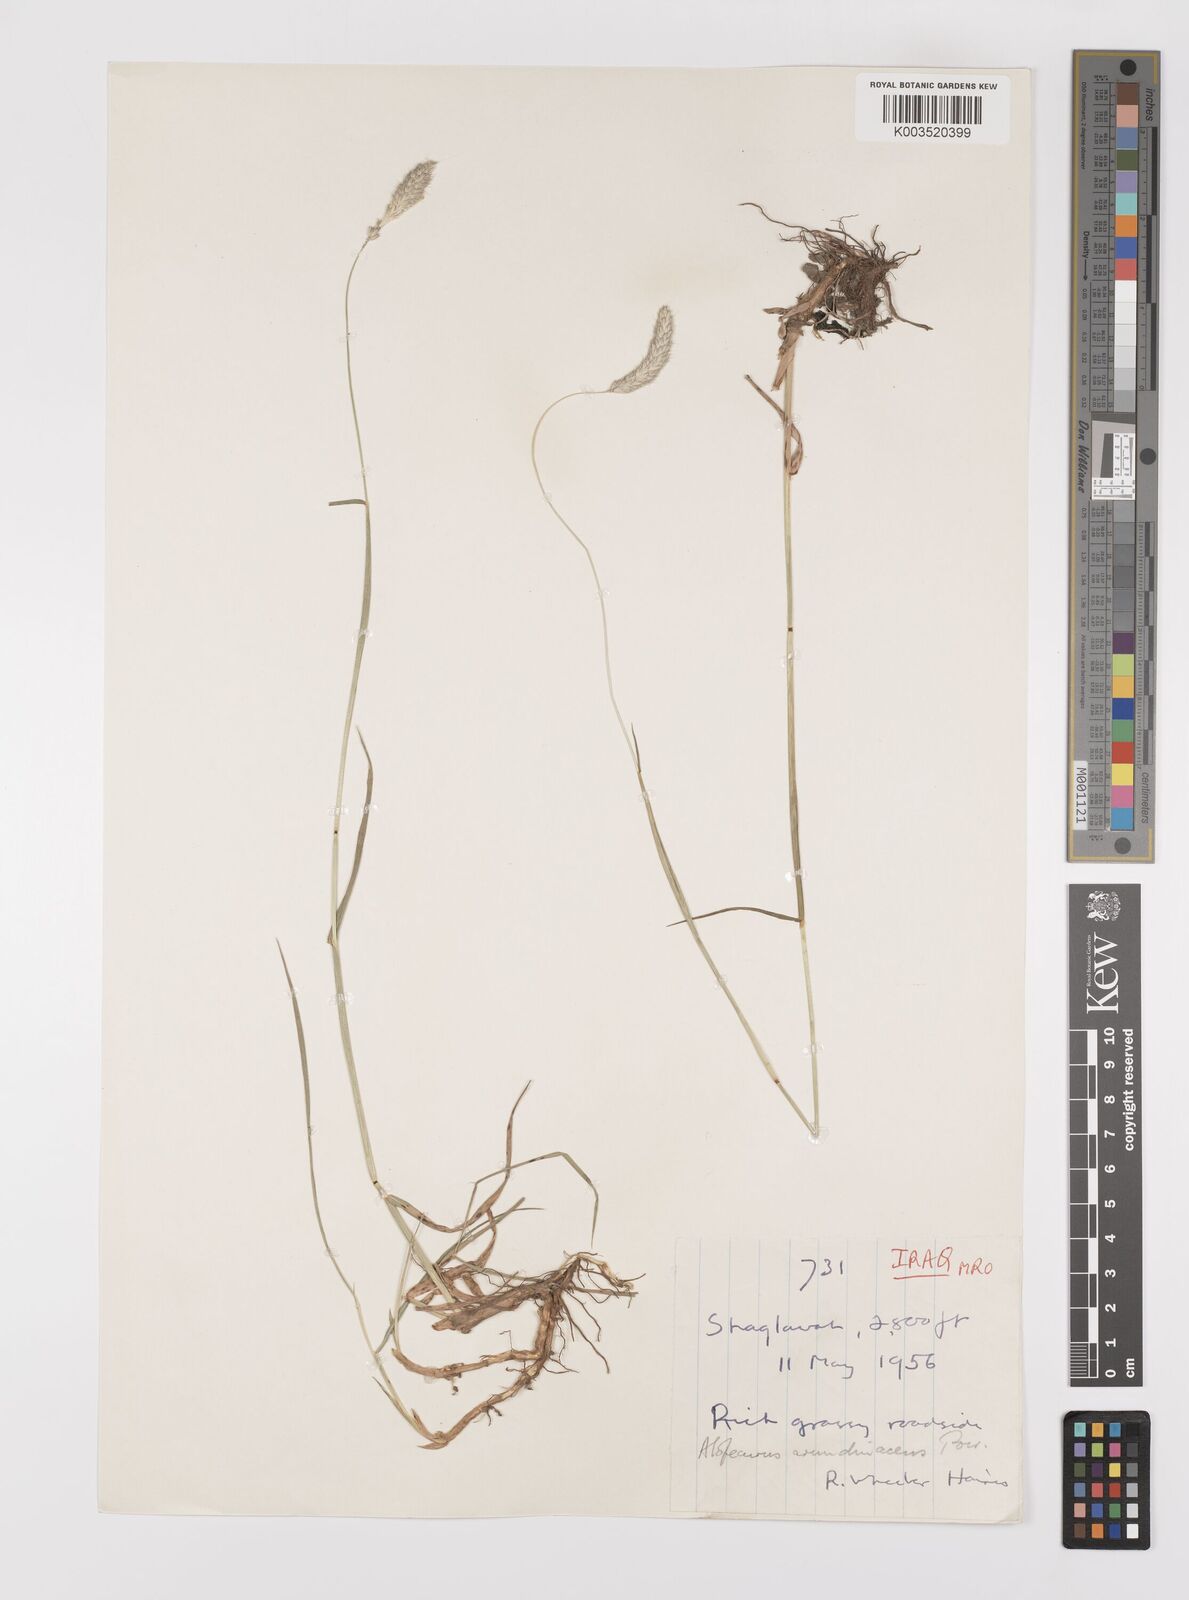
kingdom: Plantae
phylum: Tracheophyta
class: Liliopsida
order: Poales
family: Poaceae
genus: Alopecurus
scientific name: Alopecurus arundinaceus
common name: Creeping meadow foxtail
